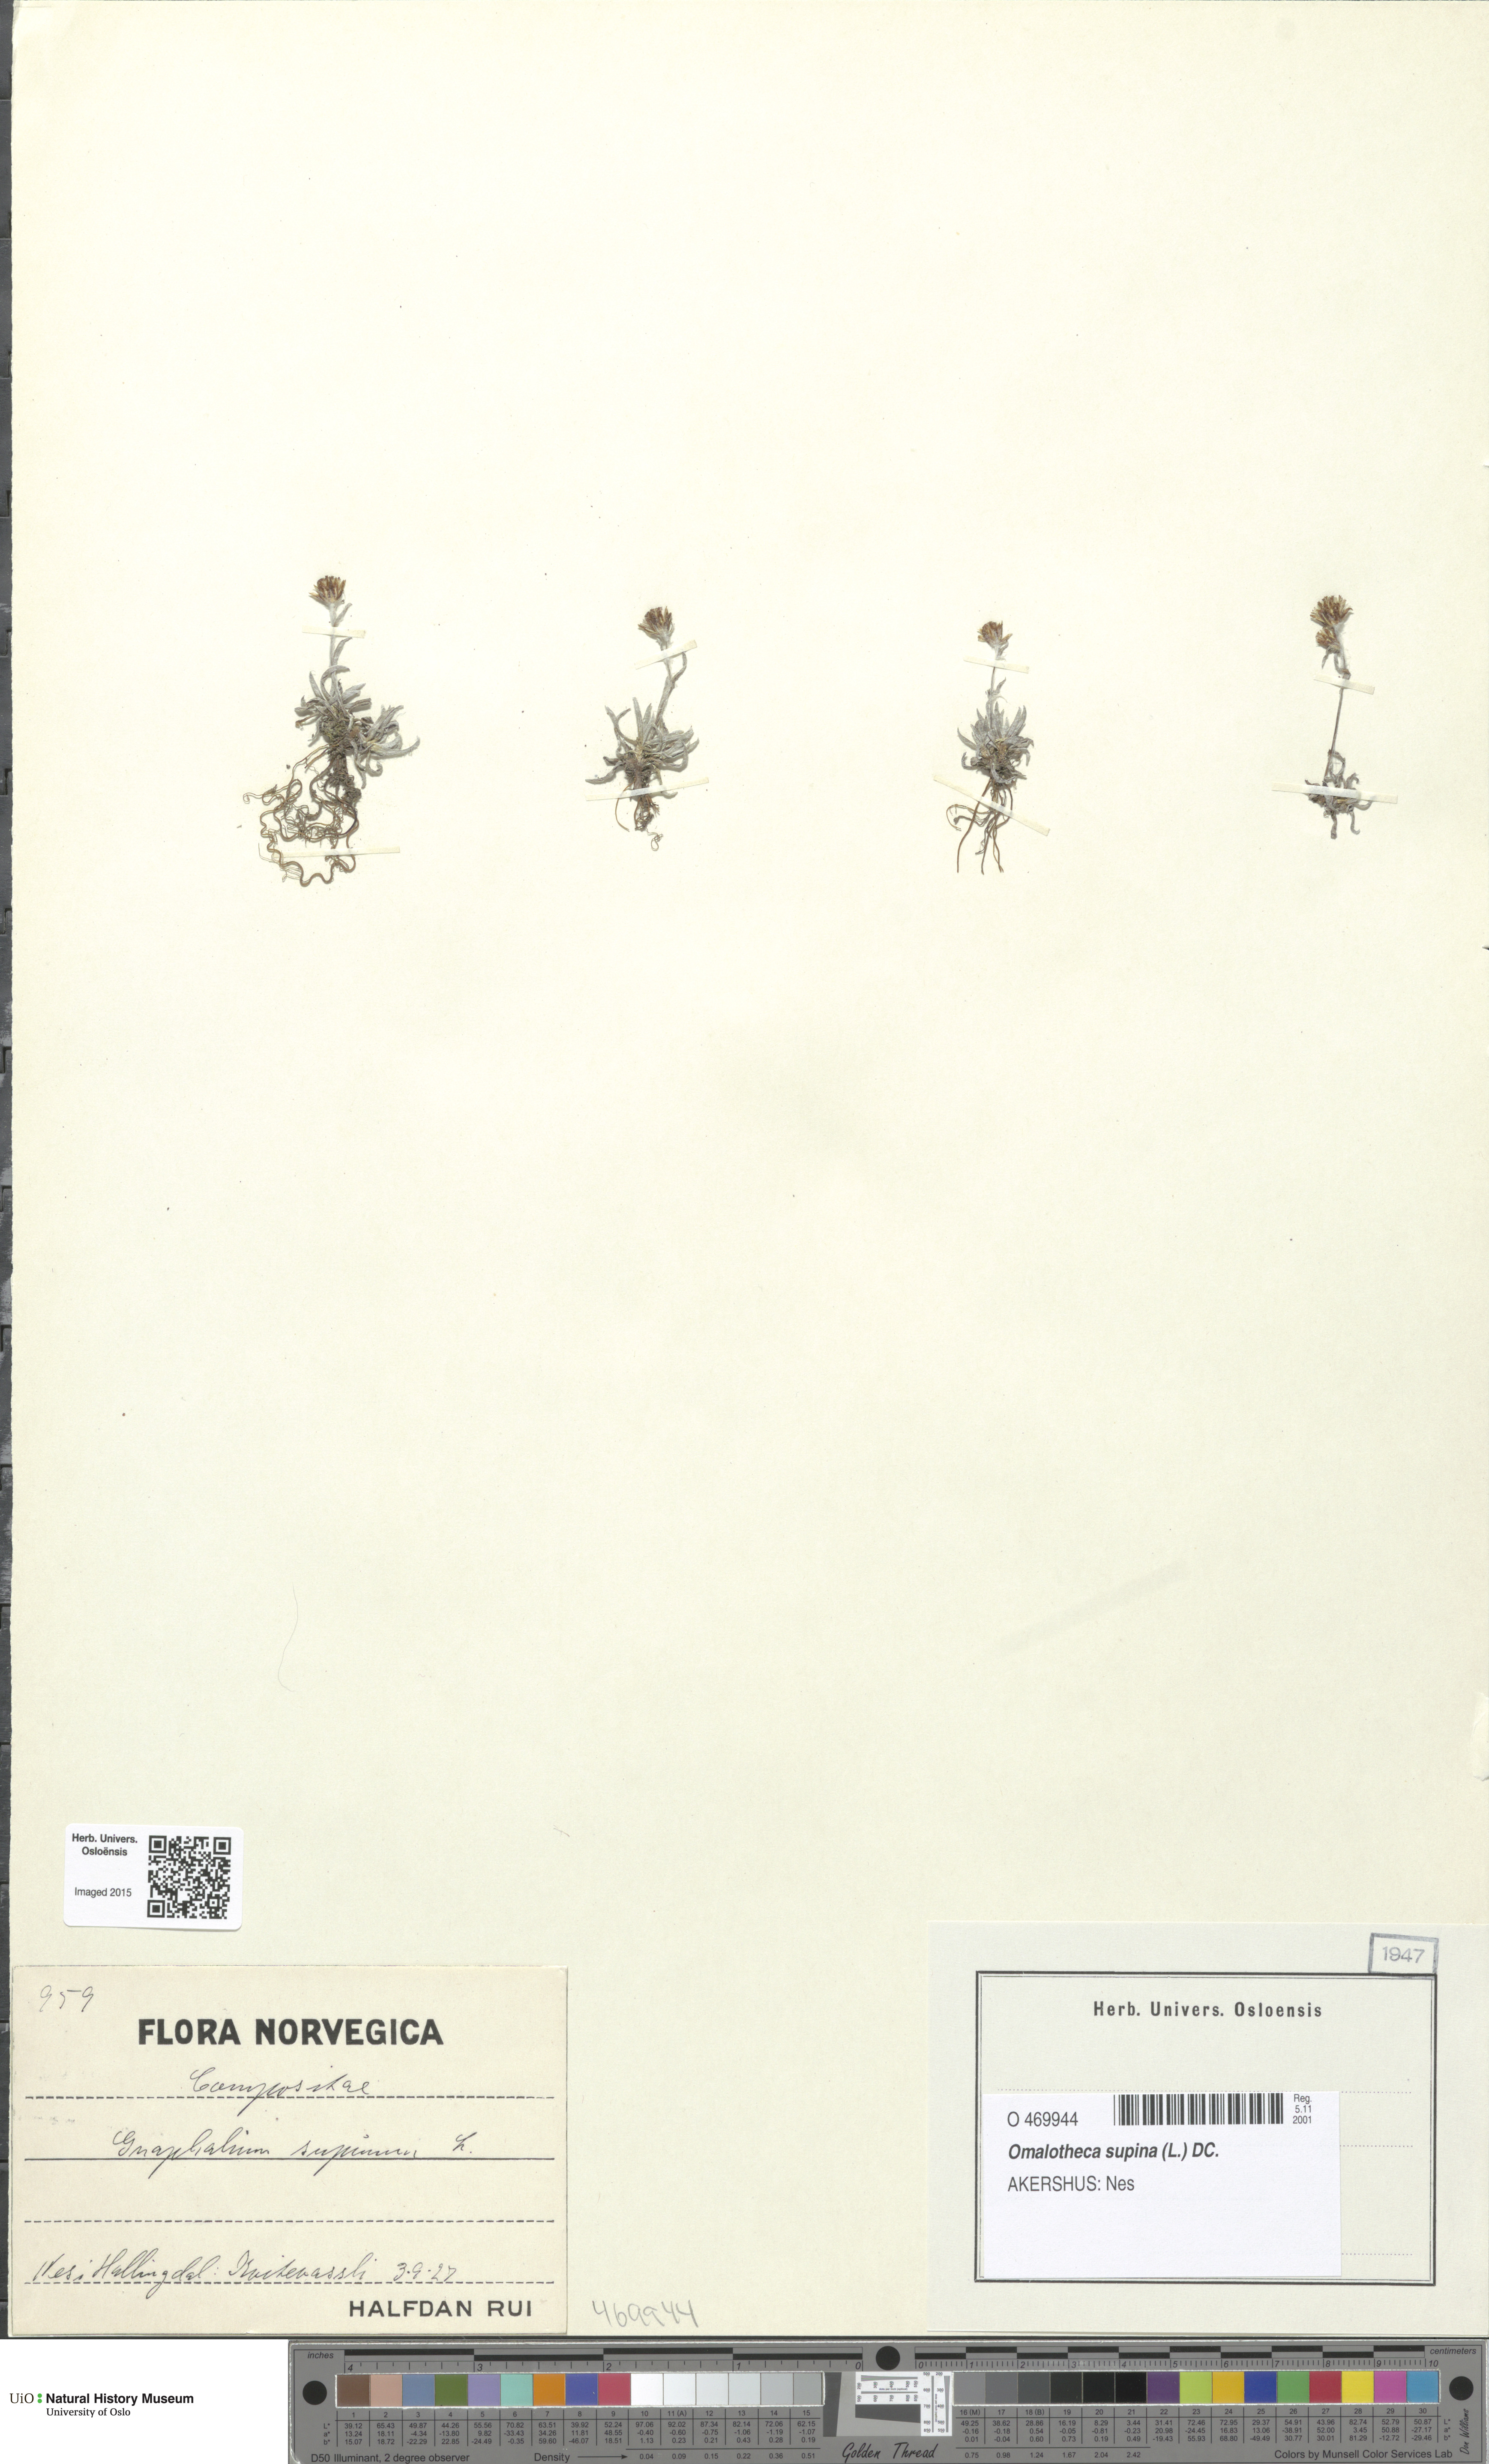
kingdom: Plantae
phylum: Tracheophyta
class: Magnoliopsida
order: Asterales
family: Asteraceae
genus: Omalotheca
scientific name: Omalotheca supina
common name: Alpine arctic-cudweed
